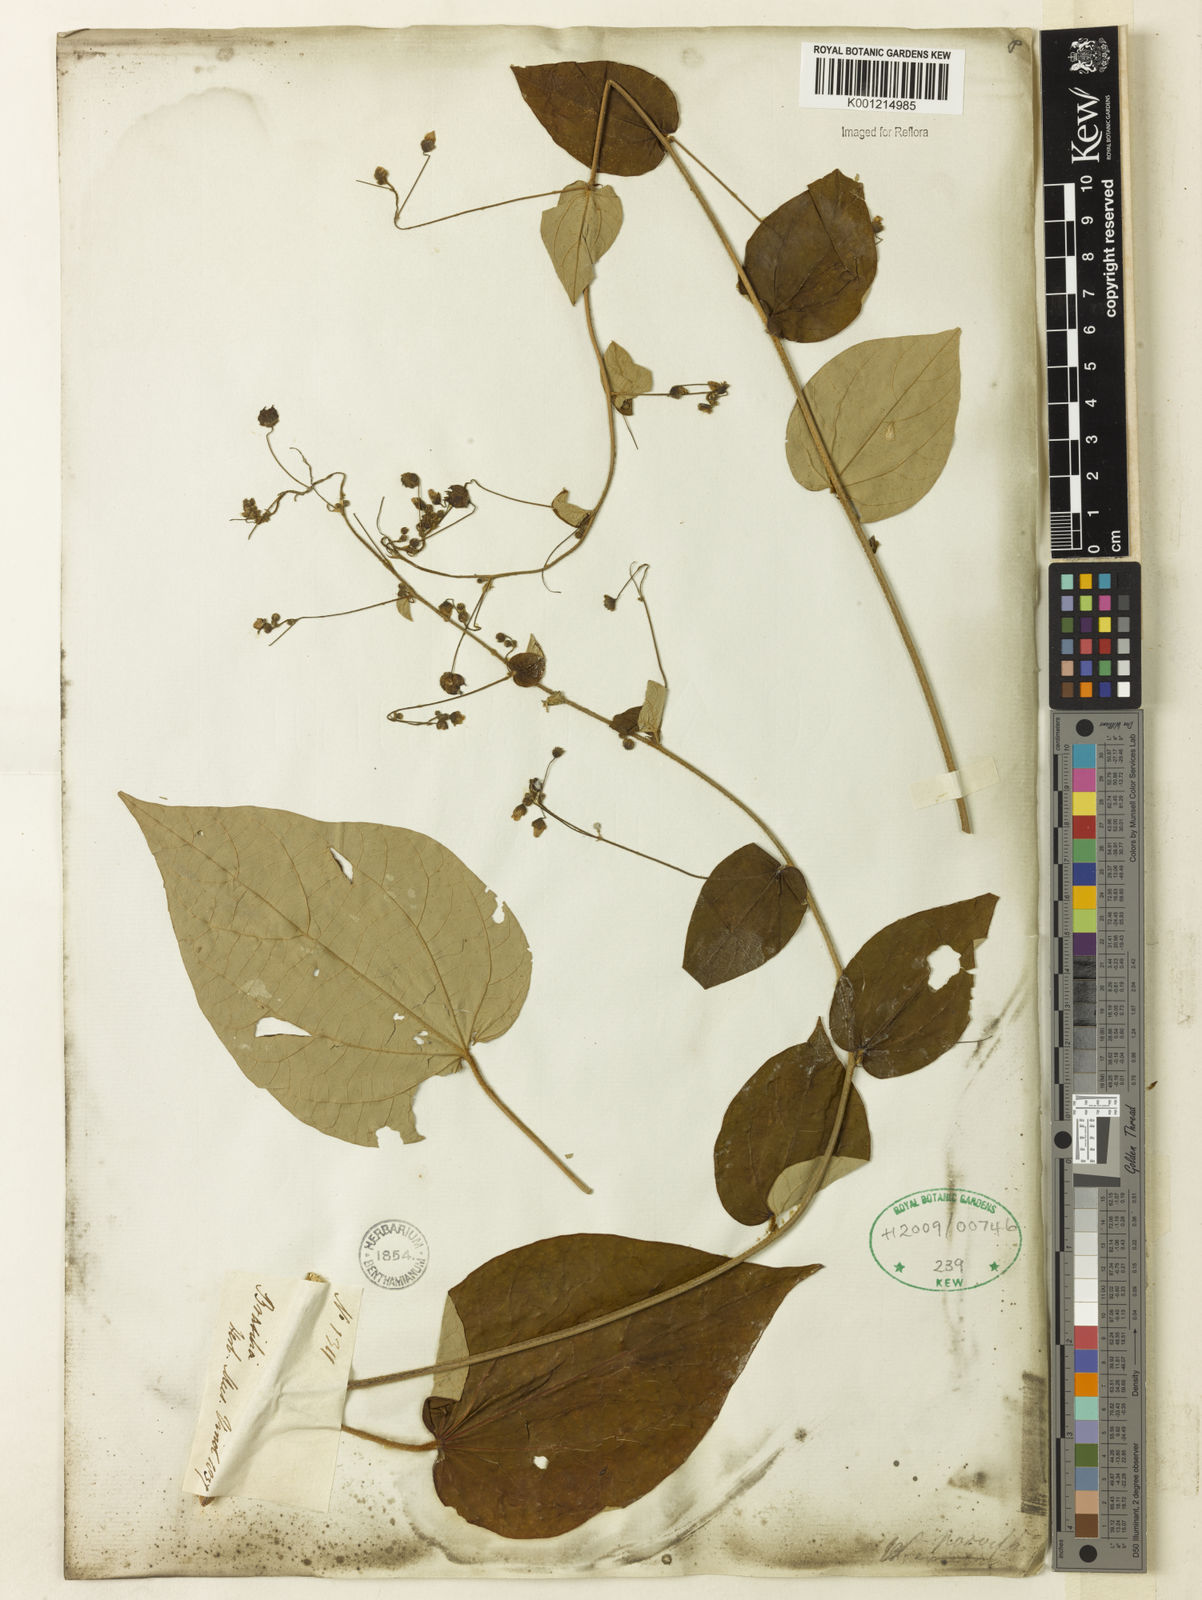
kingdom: Plantae
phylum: Tracheophyta
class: Magnoliopsida
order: Malvales
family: Malvaceae
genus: Wissadula
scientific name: Wissadula parviflora
